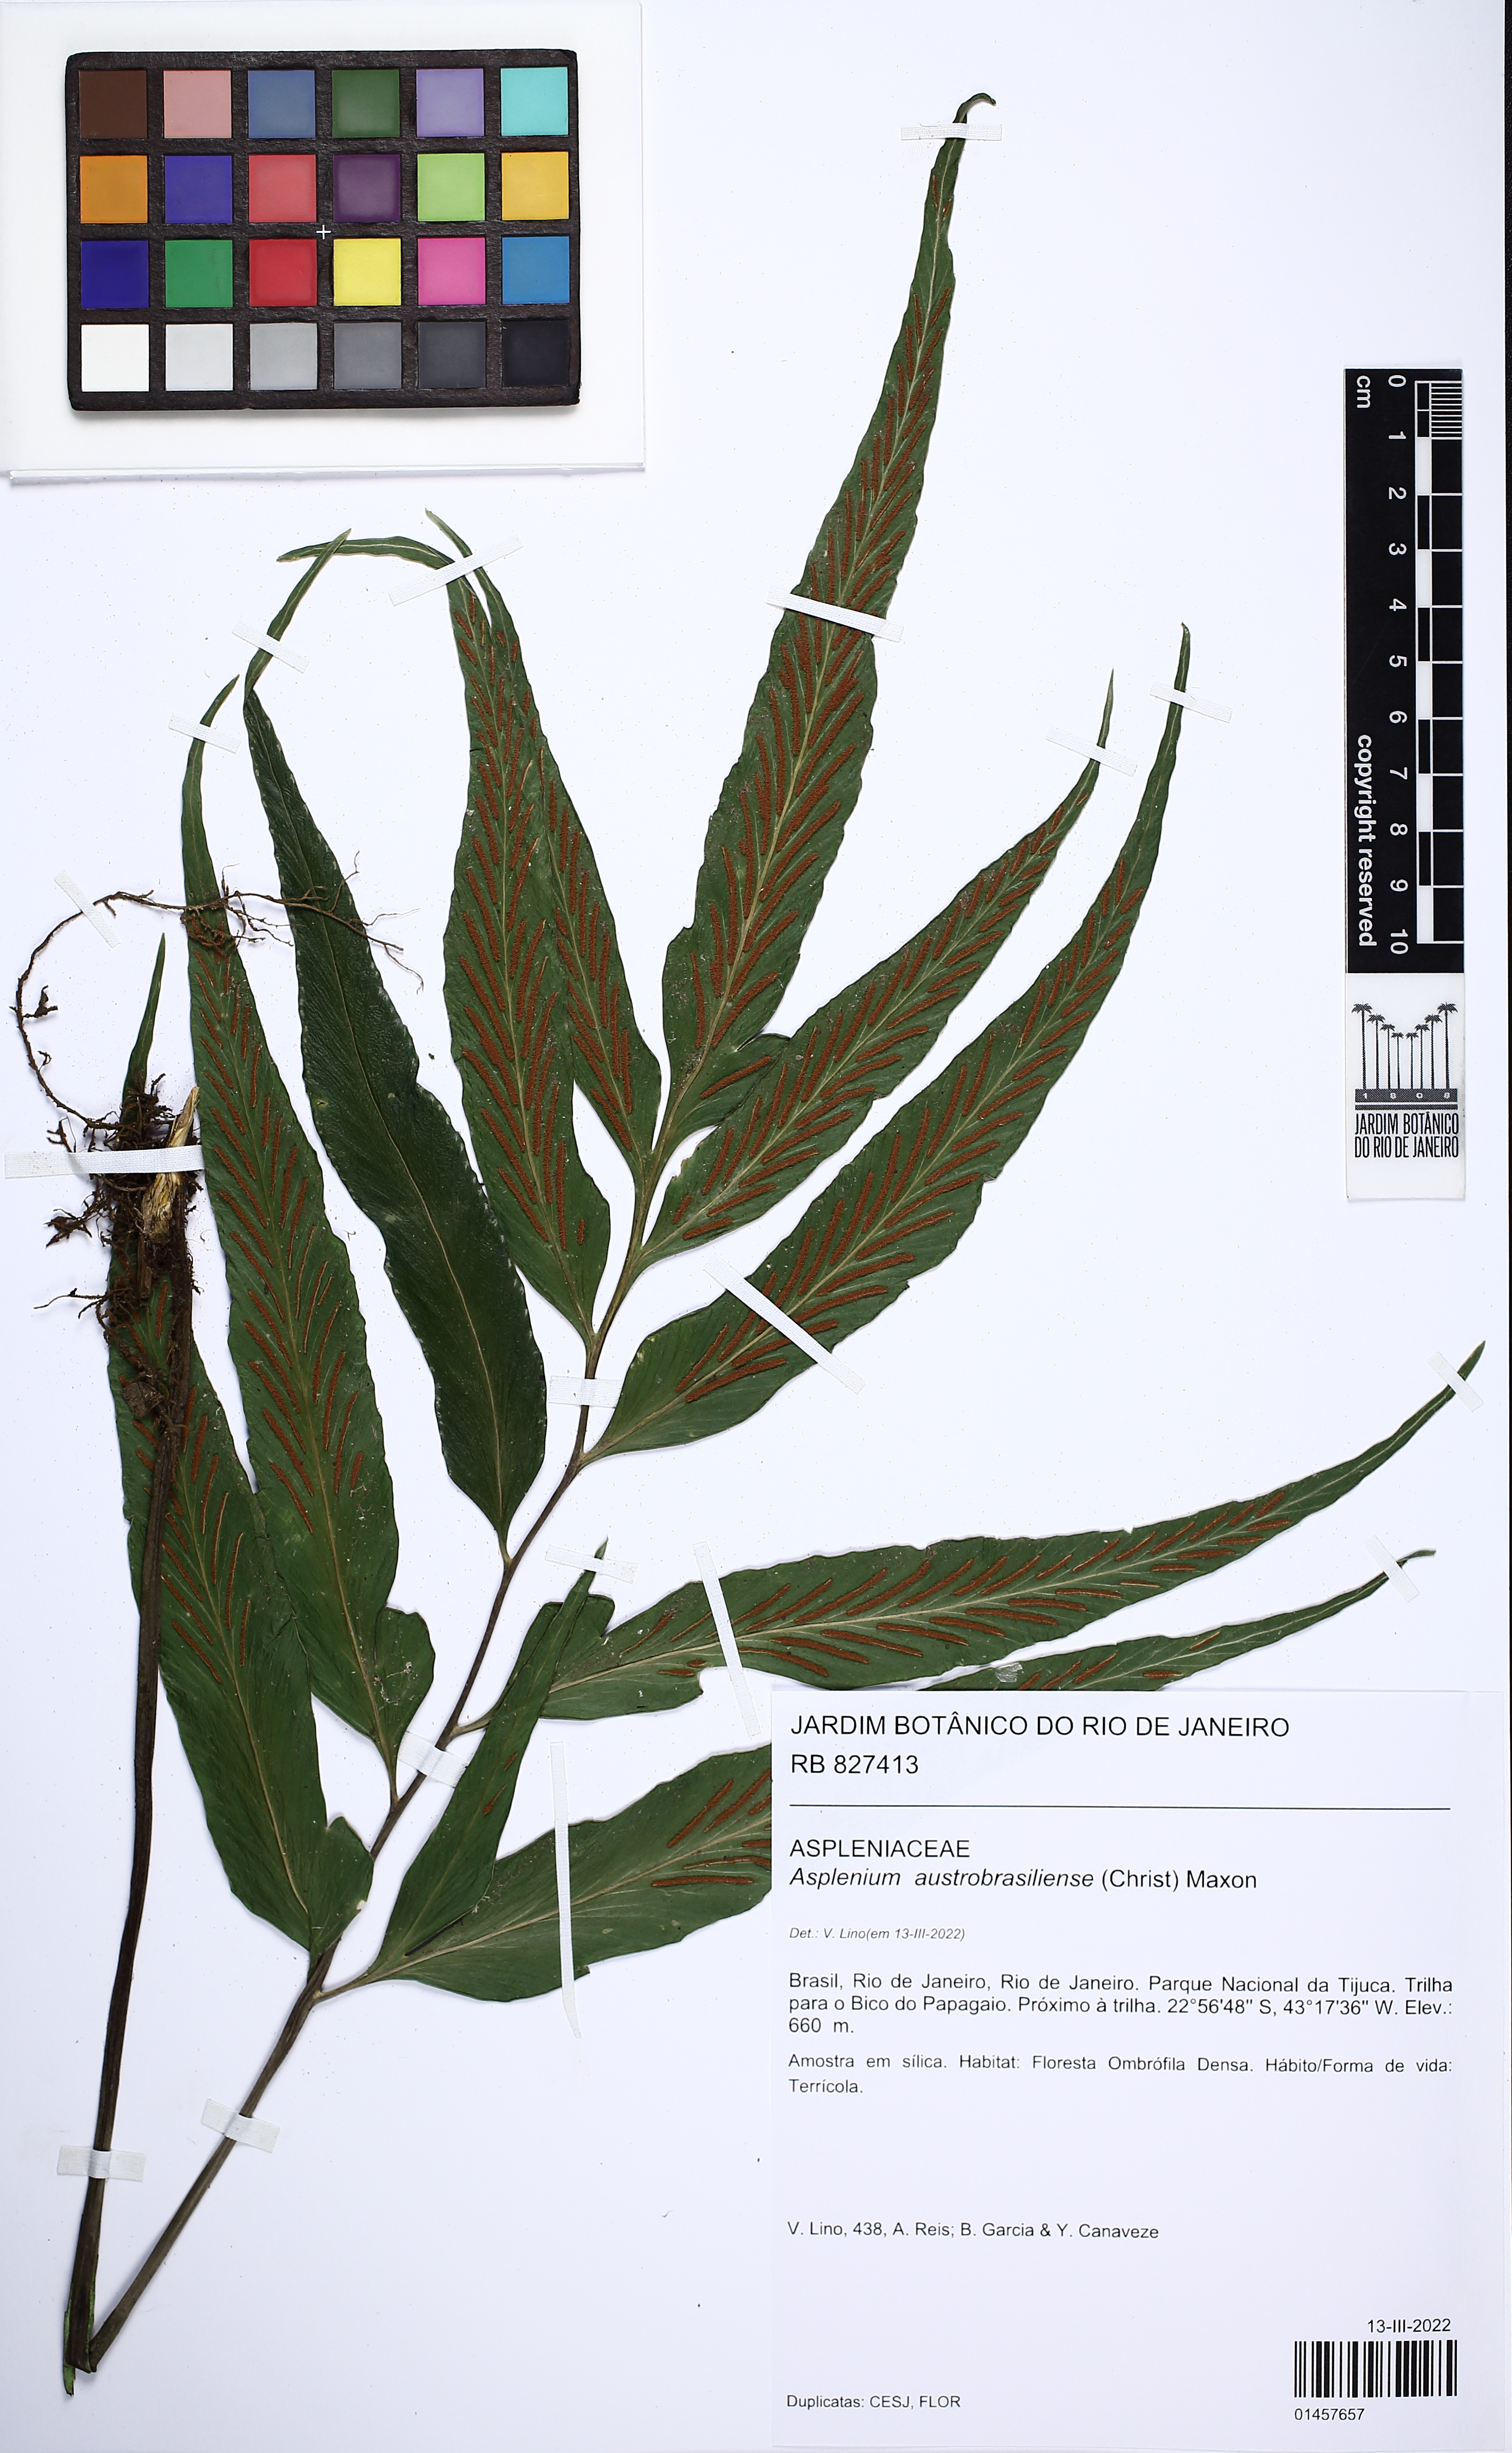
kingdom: Plantae
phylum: Tracheophyta
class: Polypodiopsida
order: Polypodiales
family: Aspleniaceae
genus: Asplenium
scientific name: Asplenium austrobrasiliense
